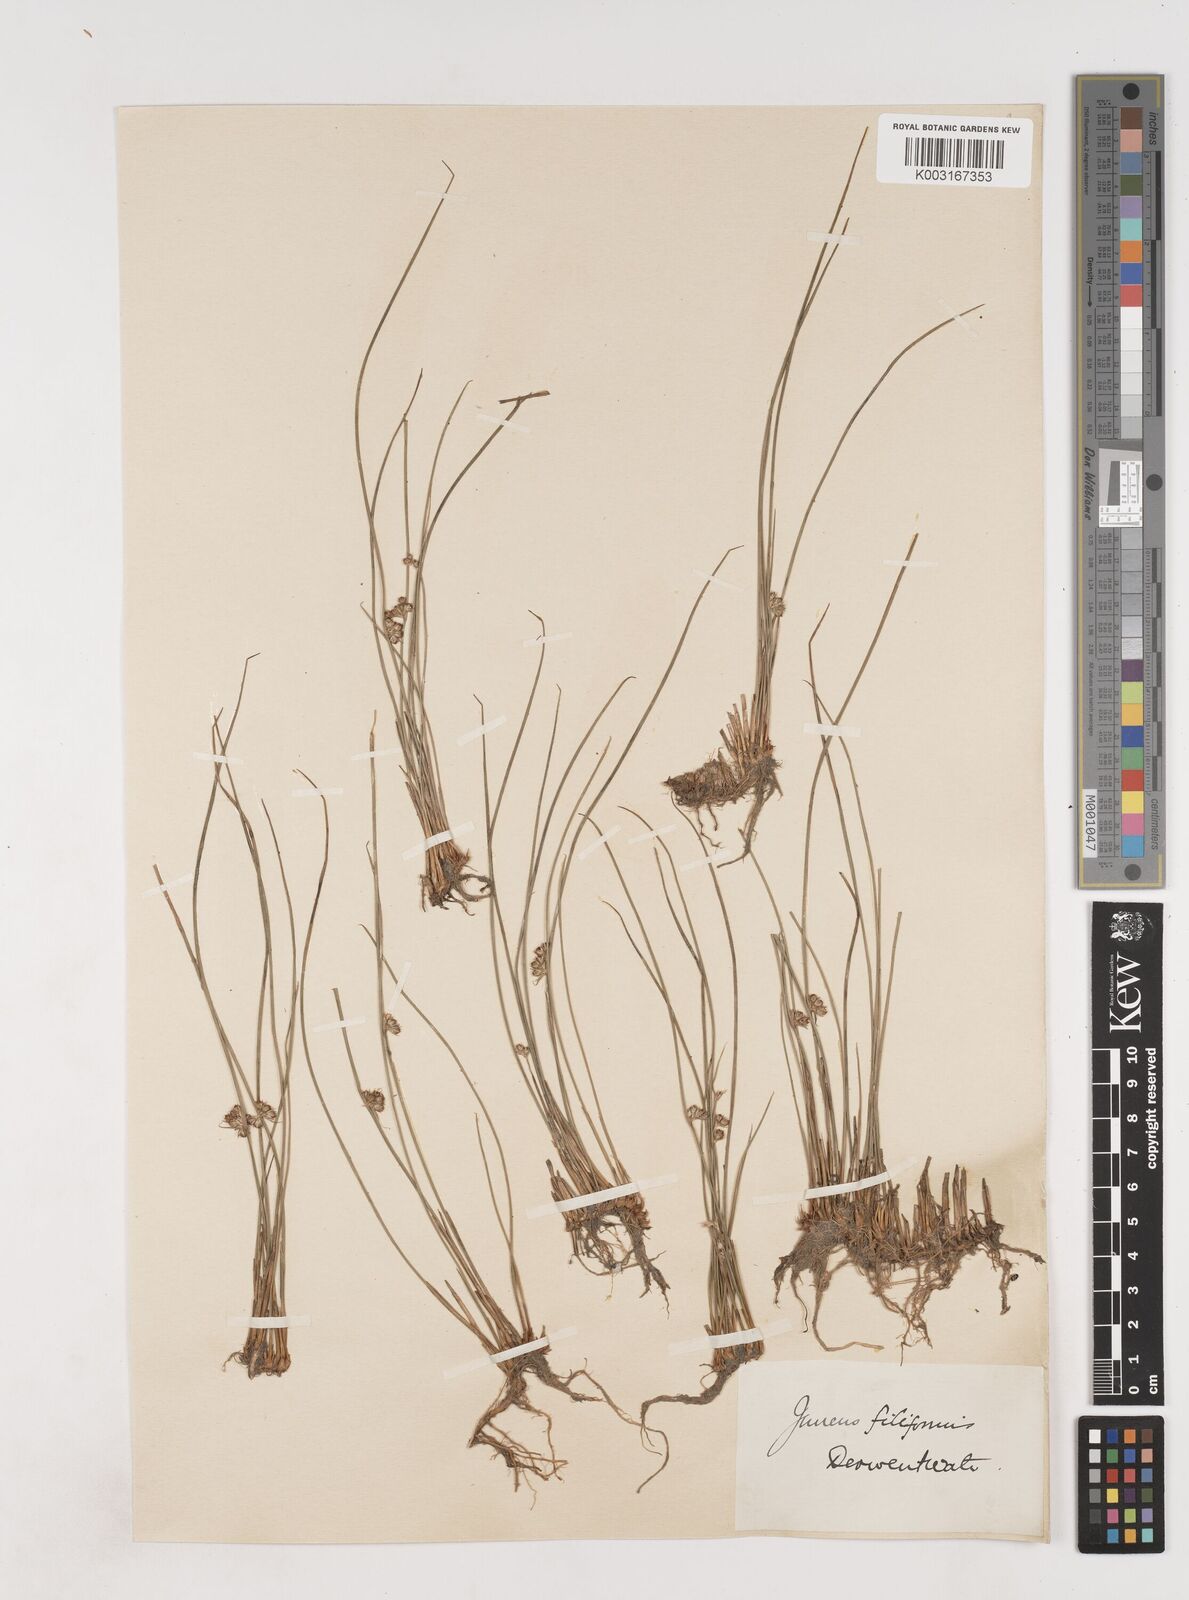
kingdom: Plantae
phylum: Tracheophyta
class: Liliopsida
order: Poales
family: Juncaceae
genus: Juncus
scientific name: Juncus filiformis
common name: Thread rush
